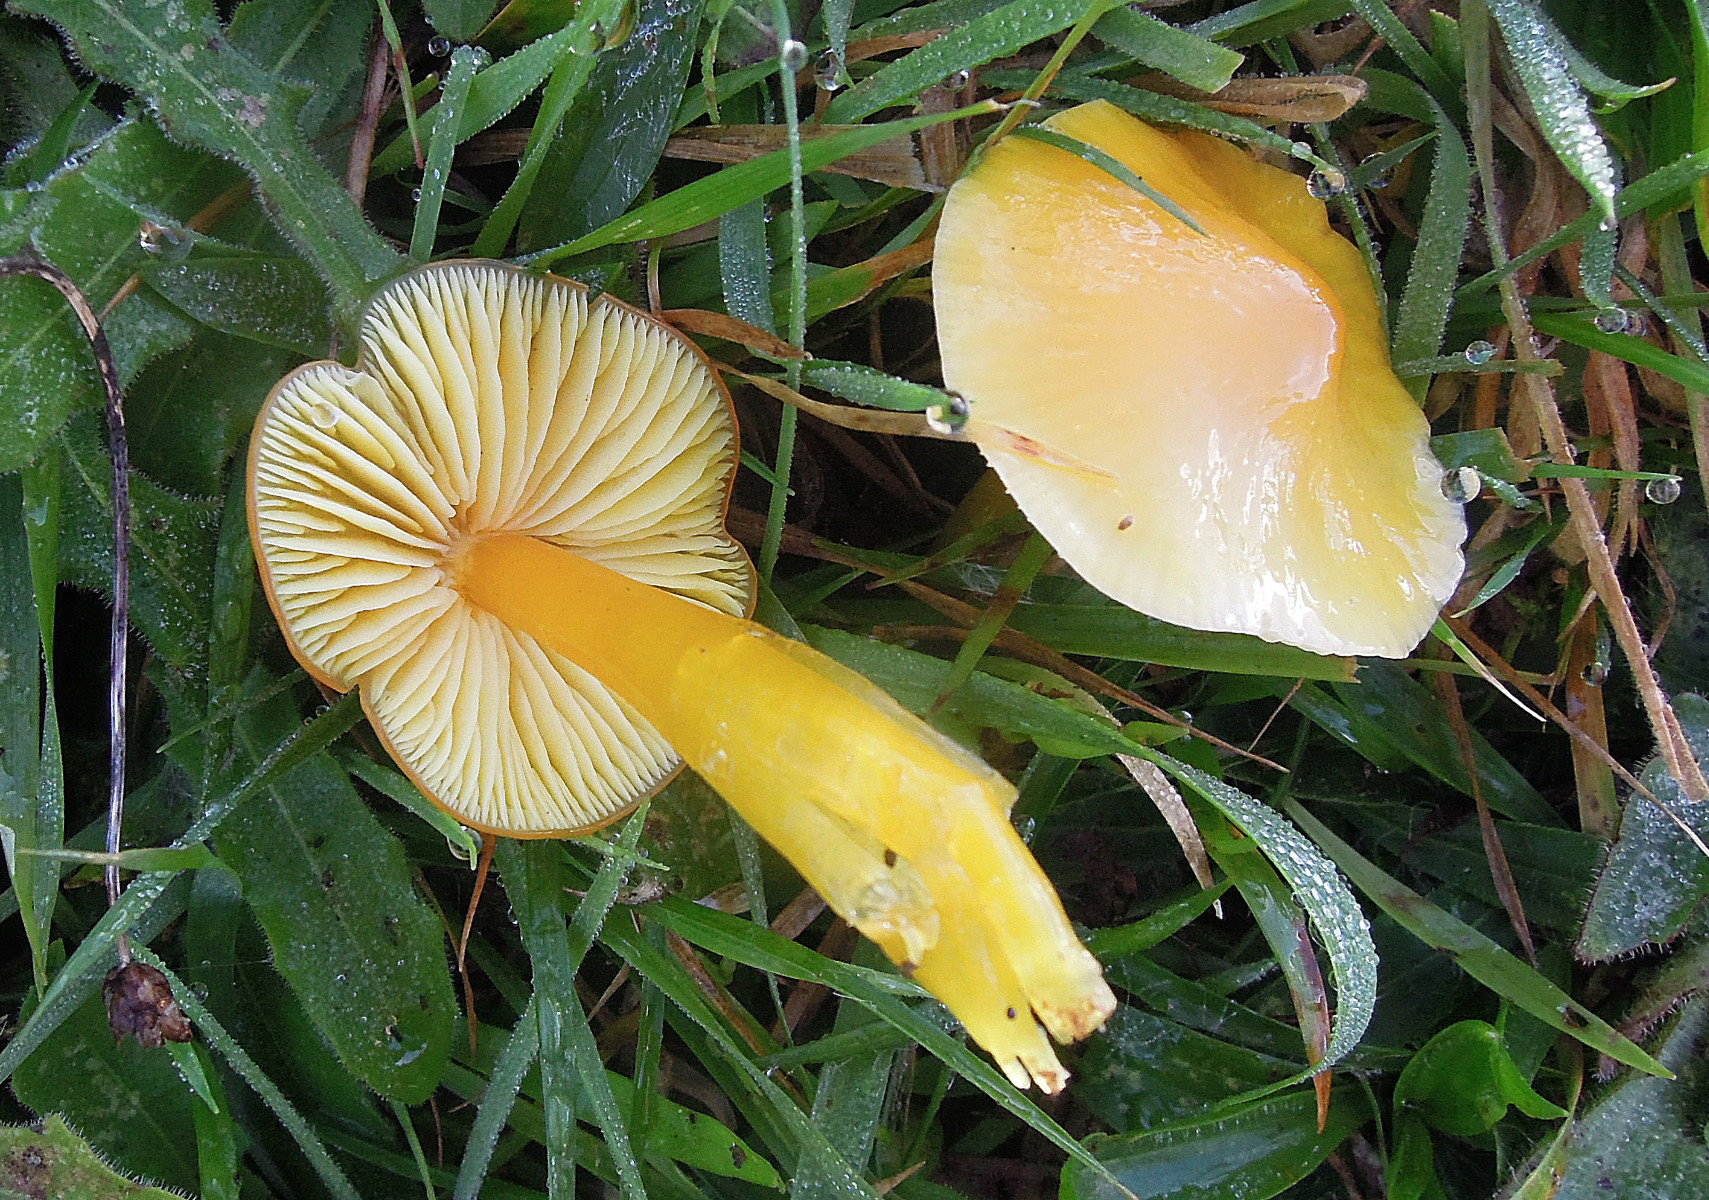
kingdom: Fungi
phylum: Basidiomycota
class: Agaricomycetes
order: Agaricales
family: Hygrophoraceae
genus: Hygrocybe
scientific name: Hygrocybe chlorophana
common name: gul vokshat
